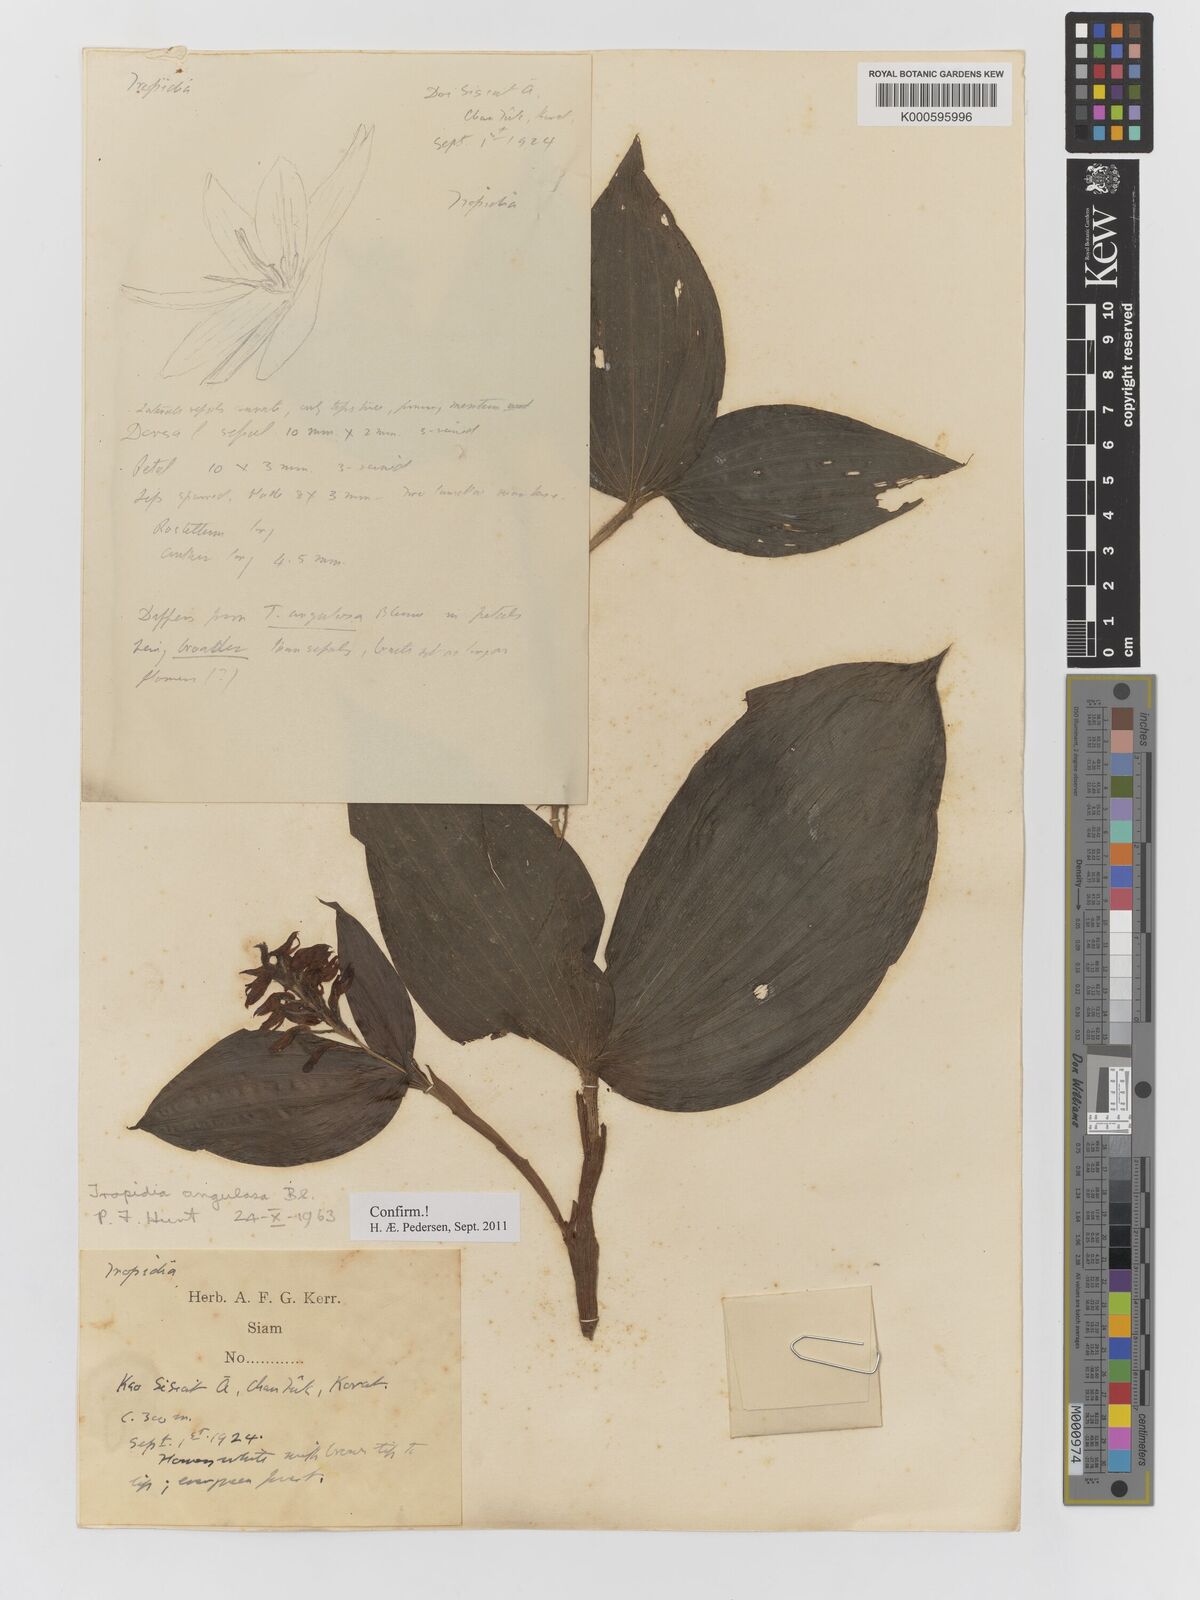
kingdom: Plantae
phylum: Tracheophyta
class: Liliopsida
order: Asparagales
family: Orchidaceae
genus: Tropidia
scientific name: Tropidia angulosa
